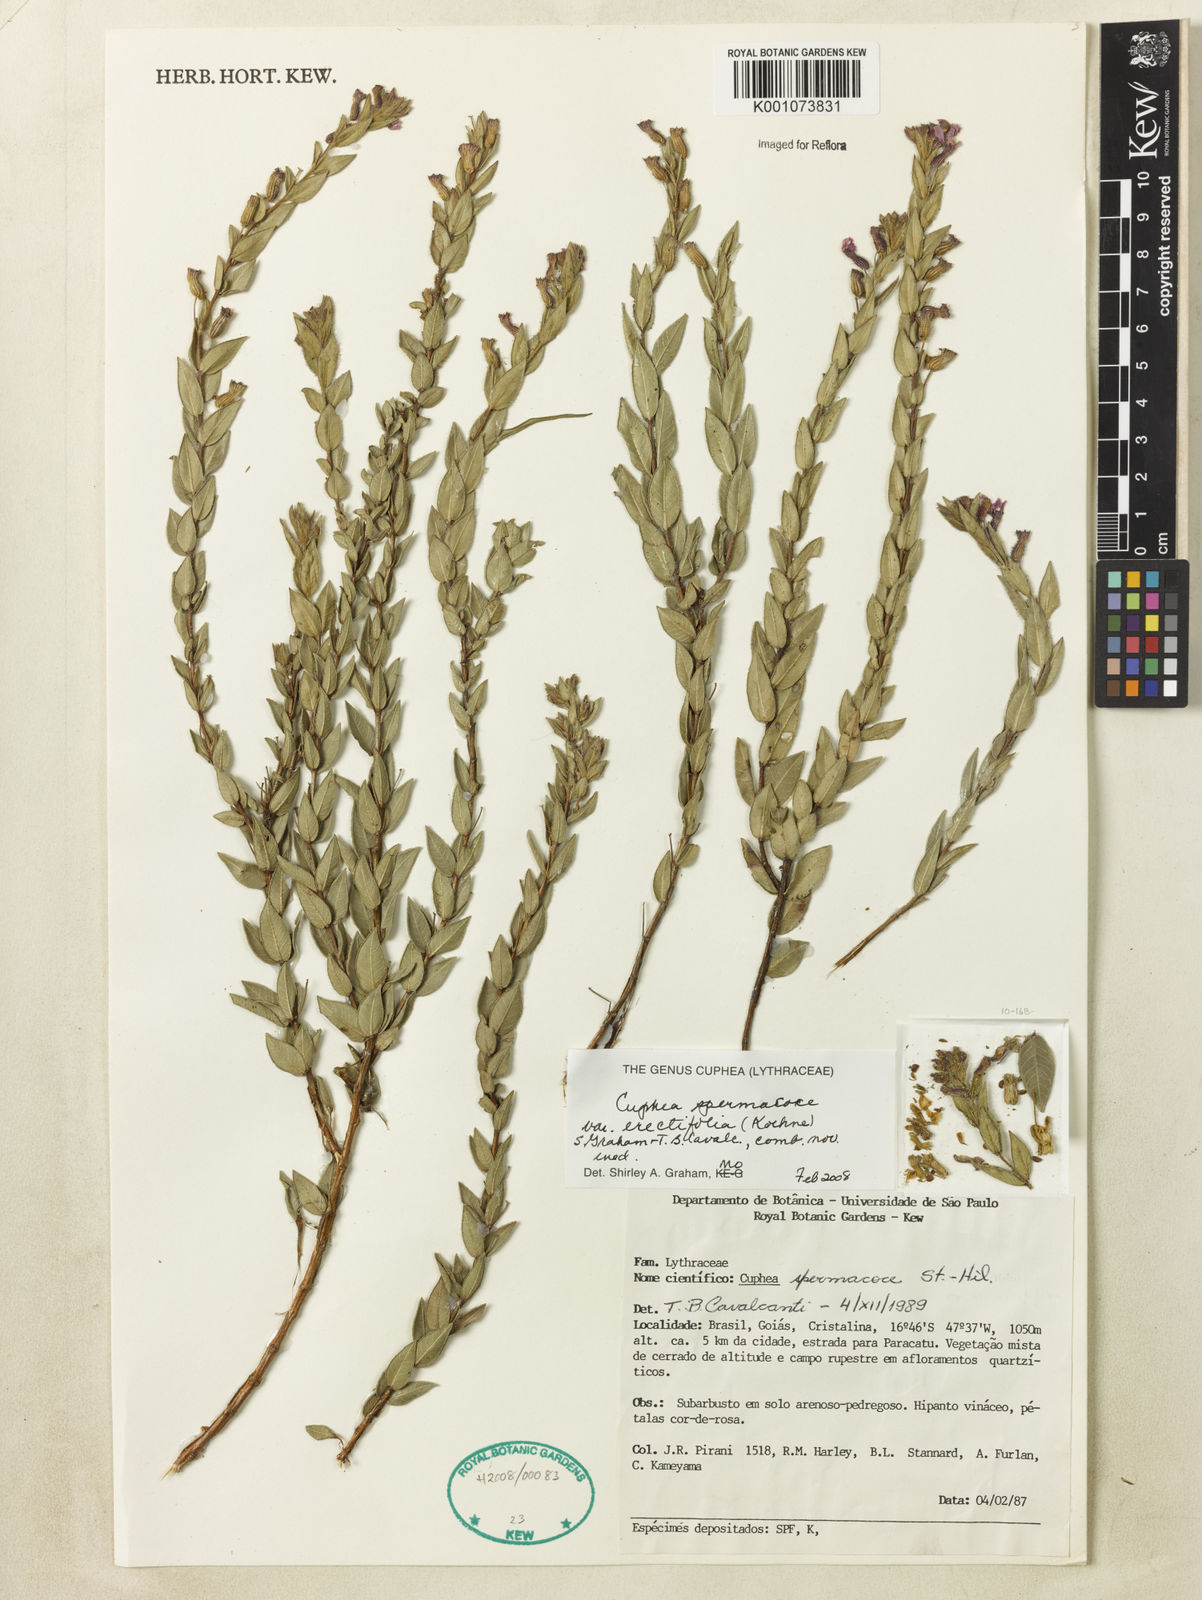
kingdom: Plantae
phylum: Tracheophyta
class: Magnoliopsida
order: Myrtales
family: Lythraceae
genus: Cuphea
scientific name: Cuphea spermacoce
